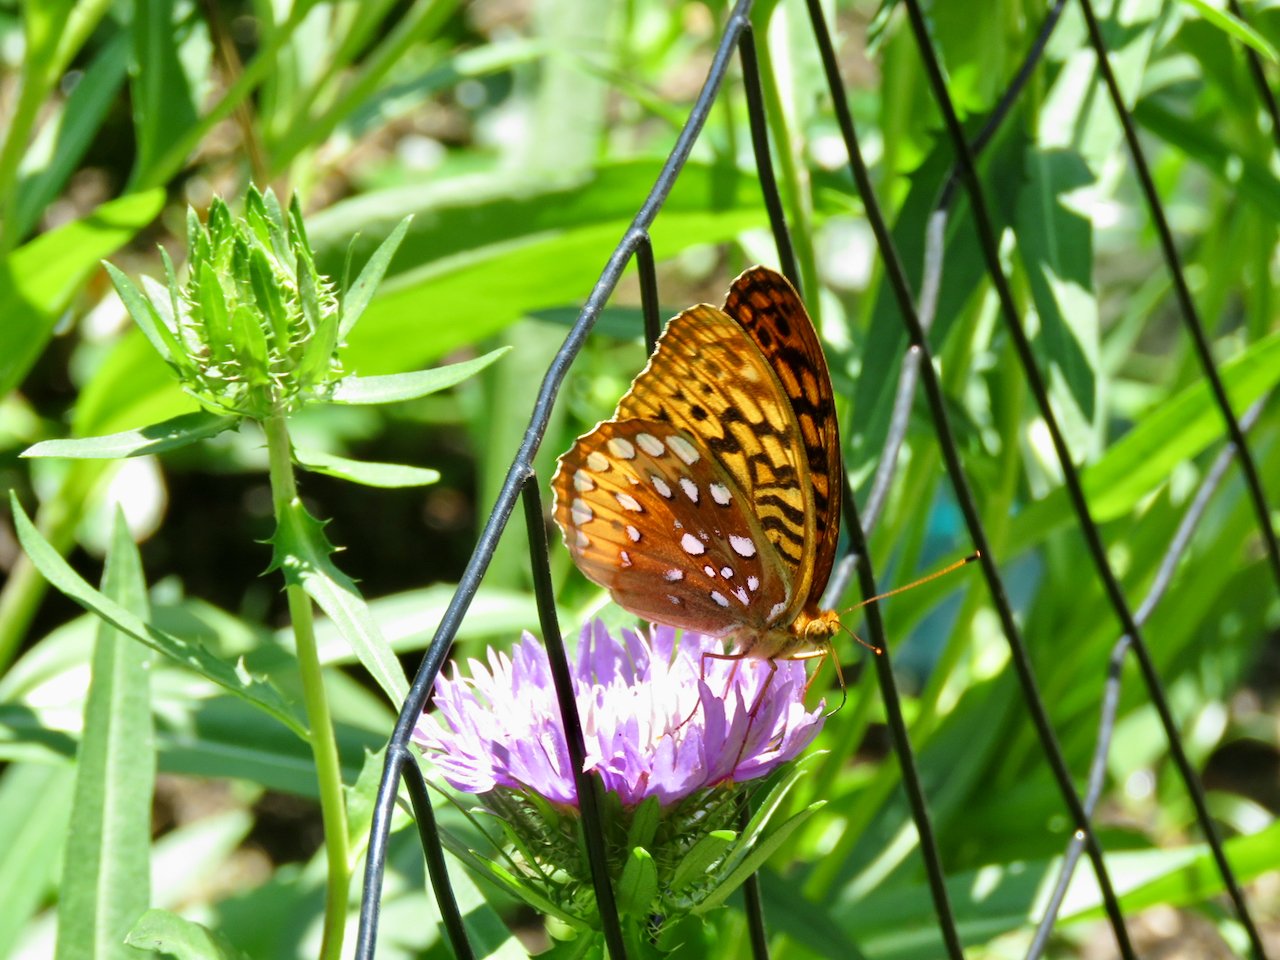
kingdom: Animalia
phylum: Arthropoda
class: Insecta
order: Lepidoptera
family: Nymphalidae
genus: Speyeria
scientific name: Speyeria cybele
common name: Great Spangled Fritillary
